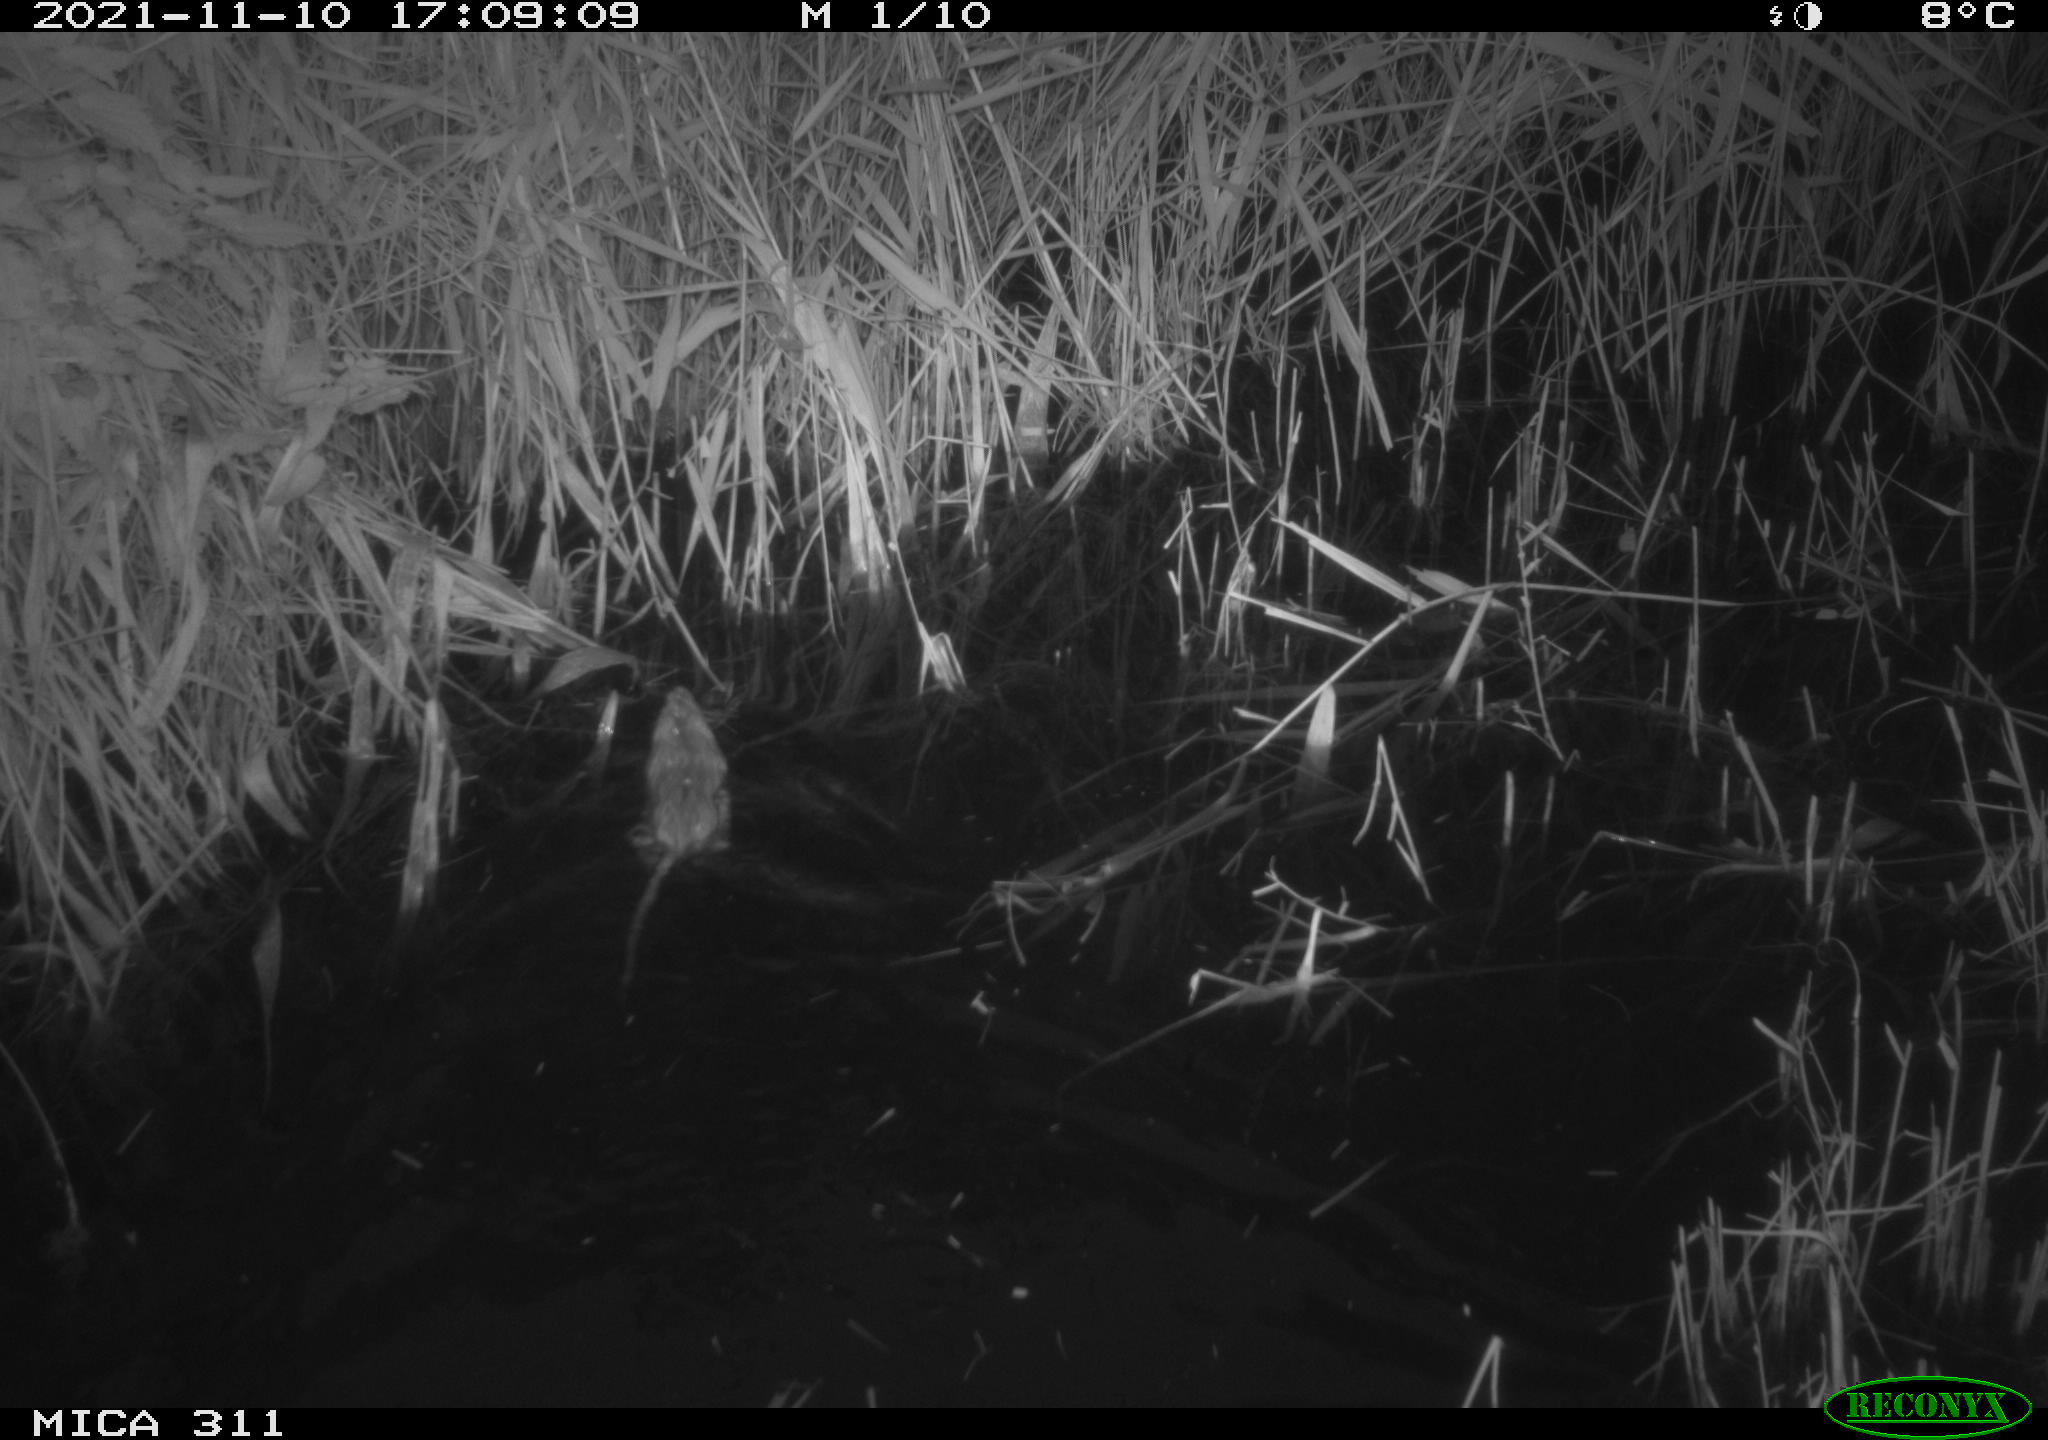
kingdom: Animalia
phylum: Chordata
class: Mammalia
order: Rodentia
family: Muridae
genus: Rattus
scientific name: Rattus norvegicus
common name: Brown rat
